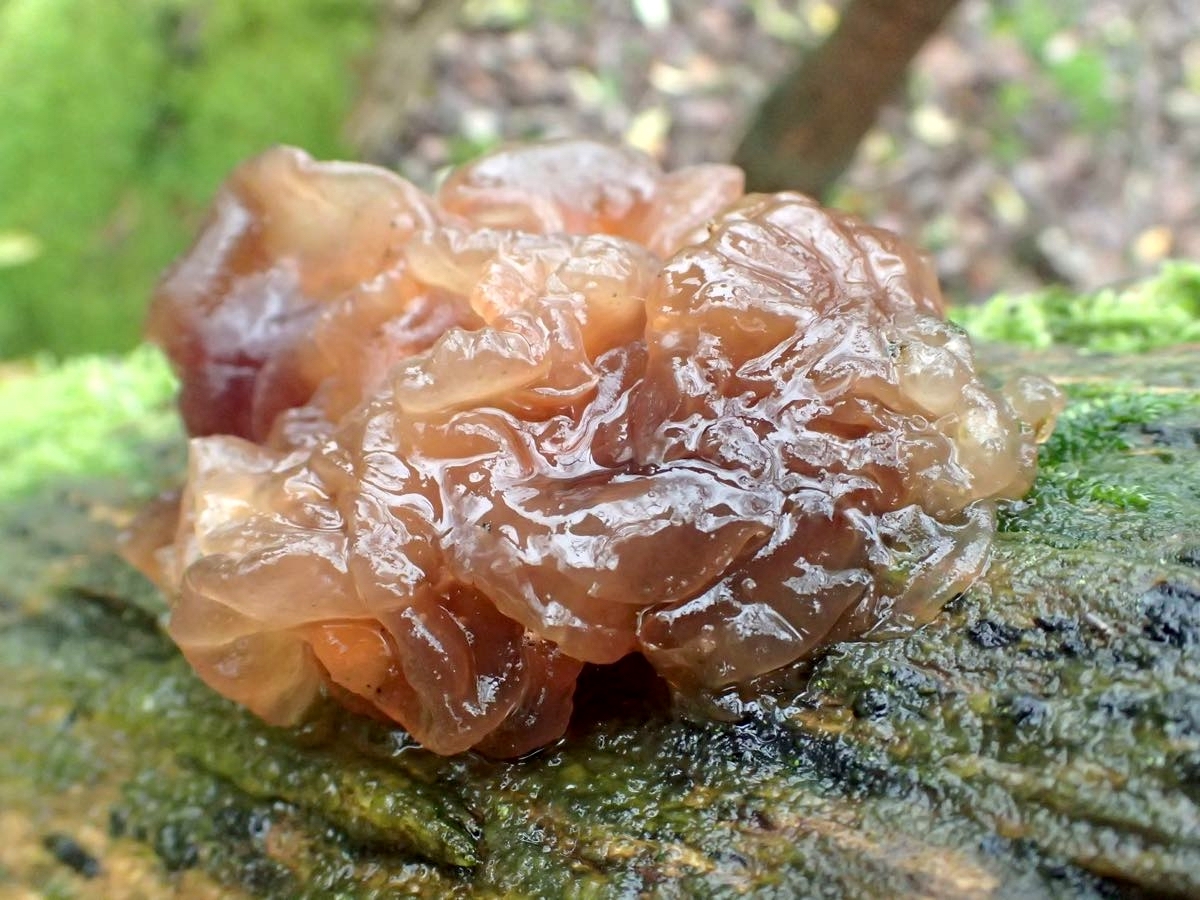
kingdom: Fungi
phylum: Basidiomycota
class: Tremellomycetes
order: Tremellales
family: Tremellaceae
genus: Phaeotremella
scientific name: Phaeotremella frondosa
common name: kæmpe-bævresvamp
